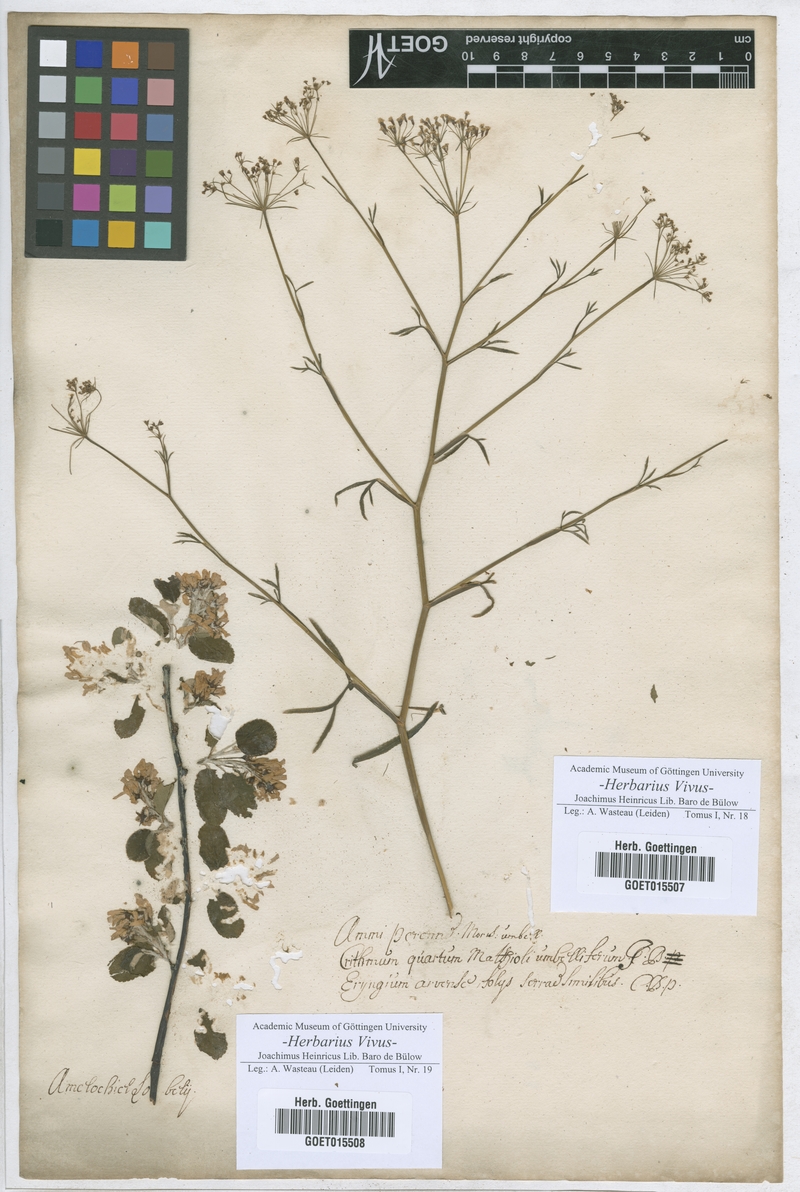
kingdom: Plantae
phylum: Tracheophyta
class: Magnoliopsida
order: Apiales
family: Apiaceae
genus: Crithmum
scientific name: Crithmum maritimum
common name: Rock samphire
